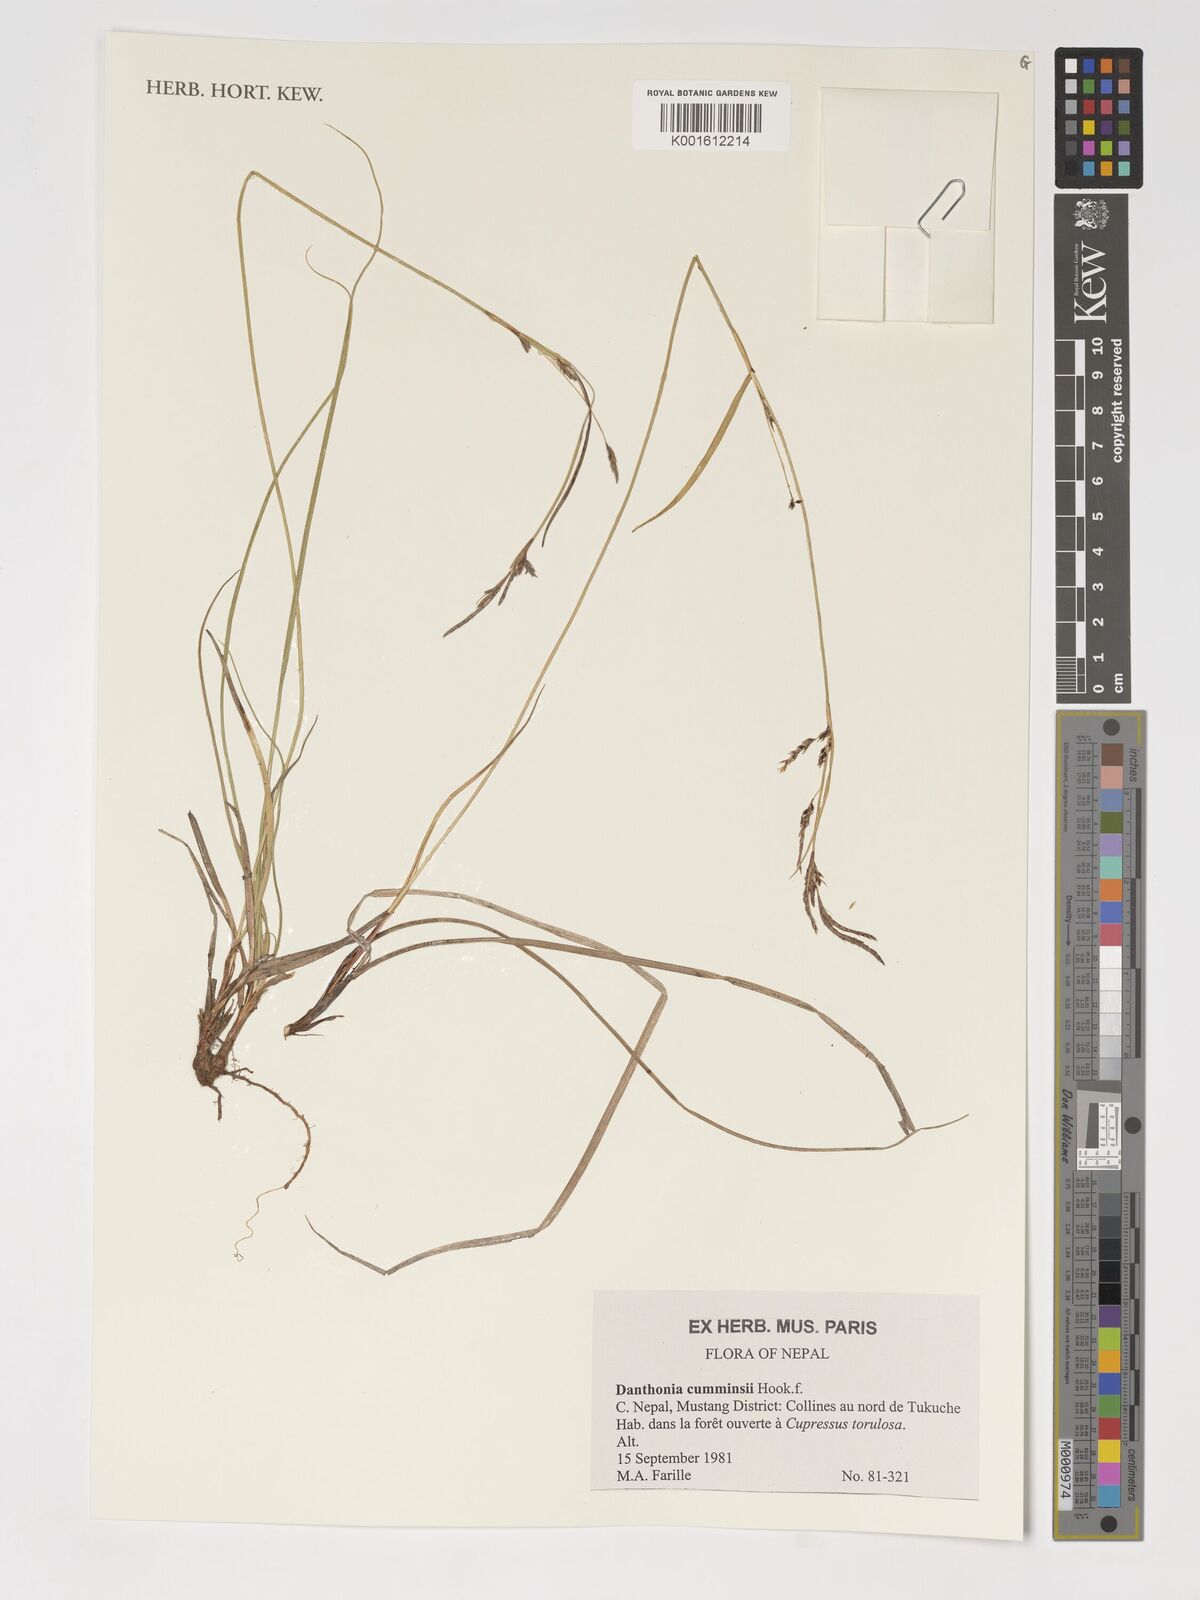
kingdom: Plantae
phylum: Tracheophyta
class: Liliopsida
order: Poales
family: Poaceae
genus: Tenaxia
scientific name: Tenaxia cumminsii
